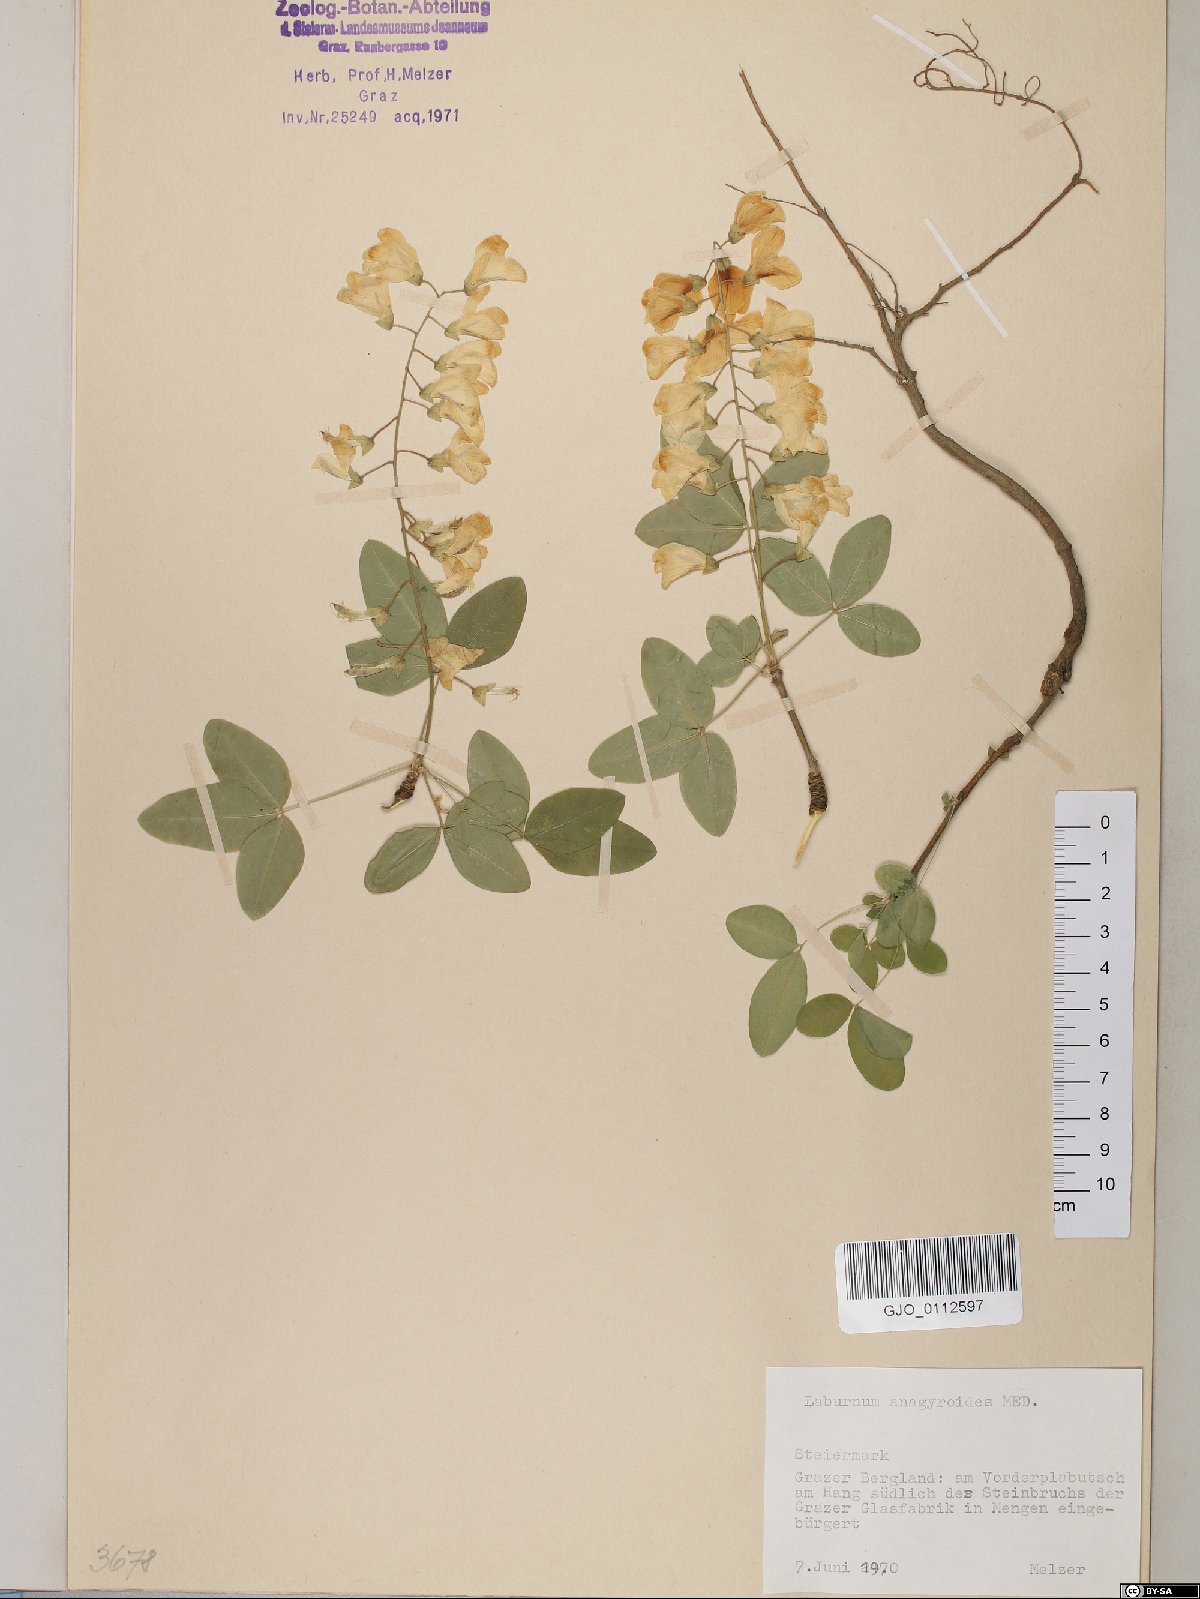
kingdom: Plantae
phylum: Tracheophyta
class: Magnoliopsida
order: Fabales
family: Fabaceae
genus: Laburnum
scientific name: Laburnum anagyroides
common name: Laburnum
